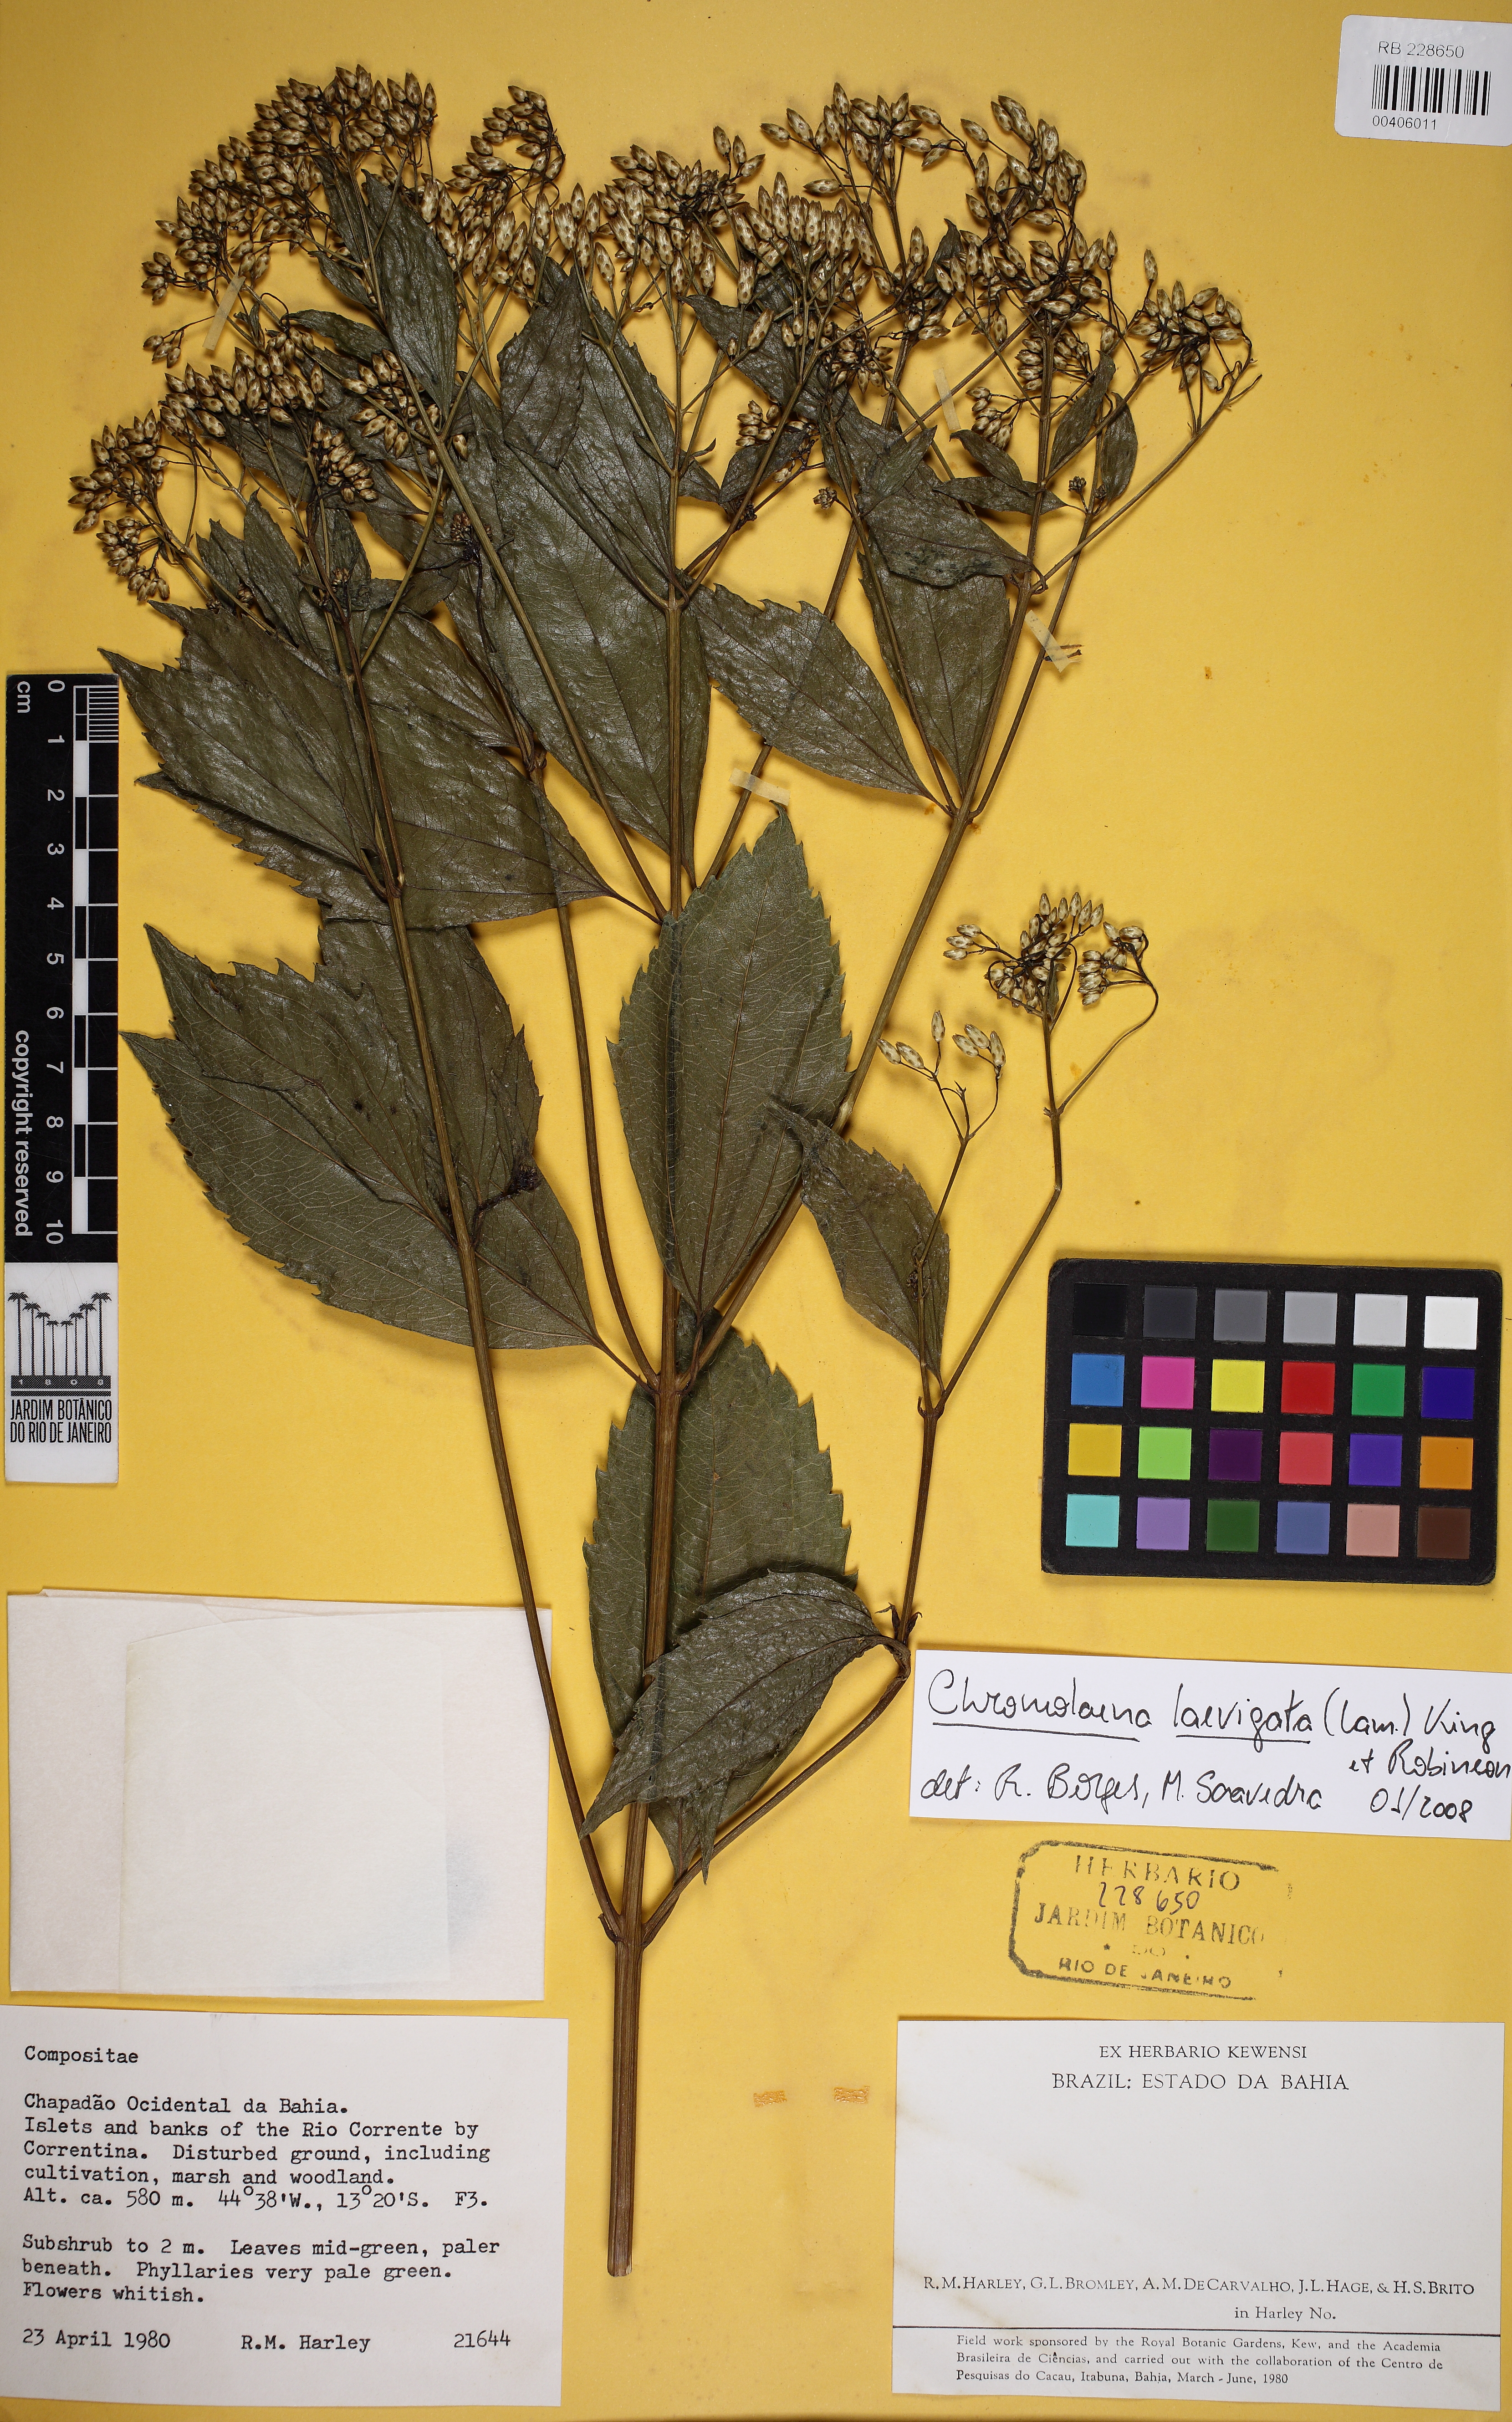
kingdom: Plantae
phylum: Tracheophyta
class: Magnoliopsida
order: Asterales
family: Asteraceae
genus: Chromolaena
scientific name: Chromolaena laevigata
